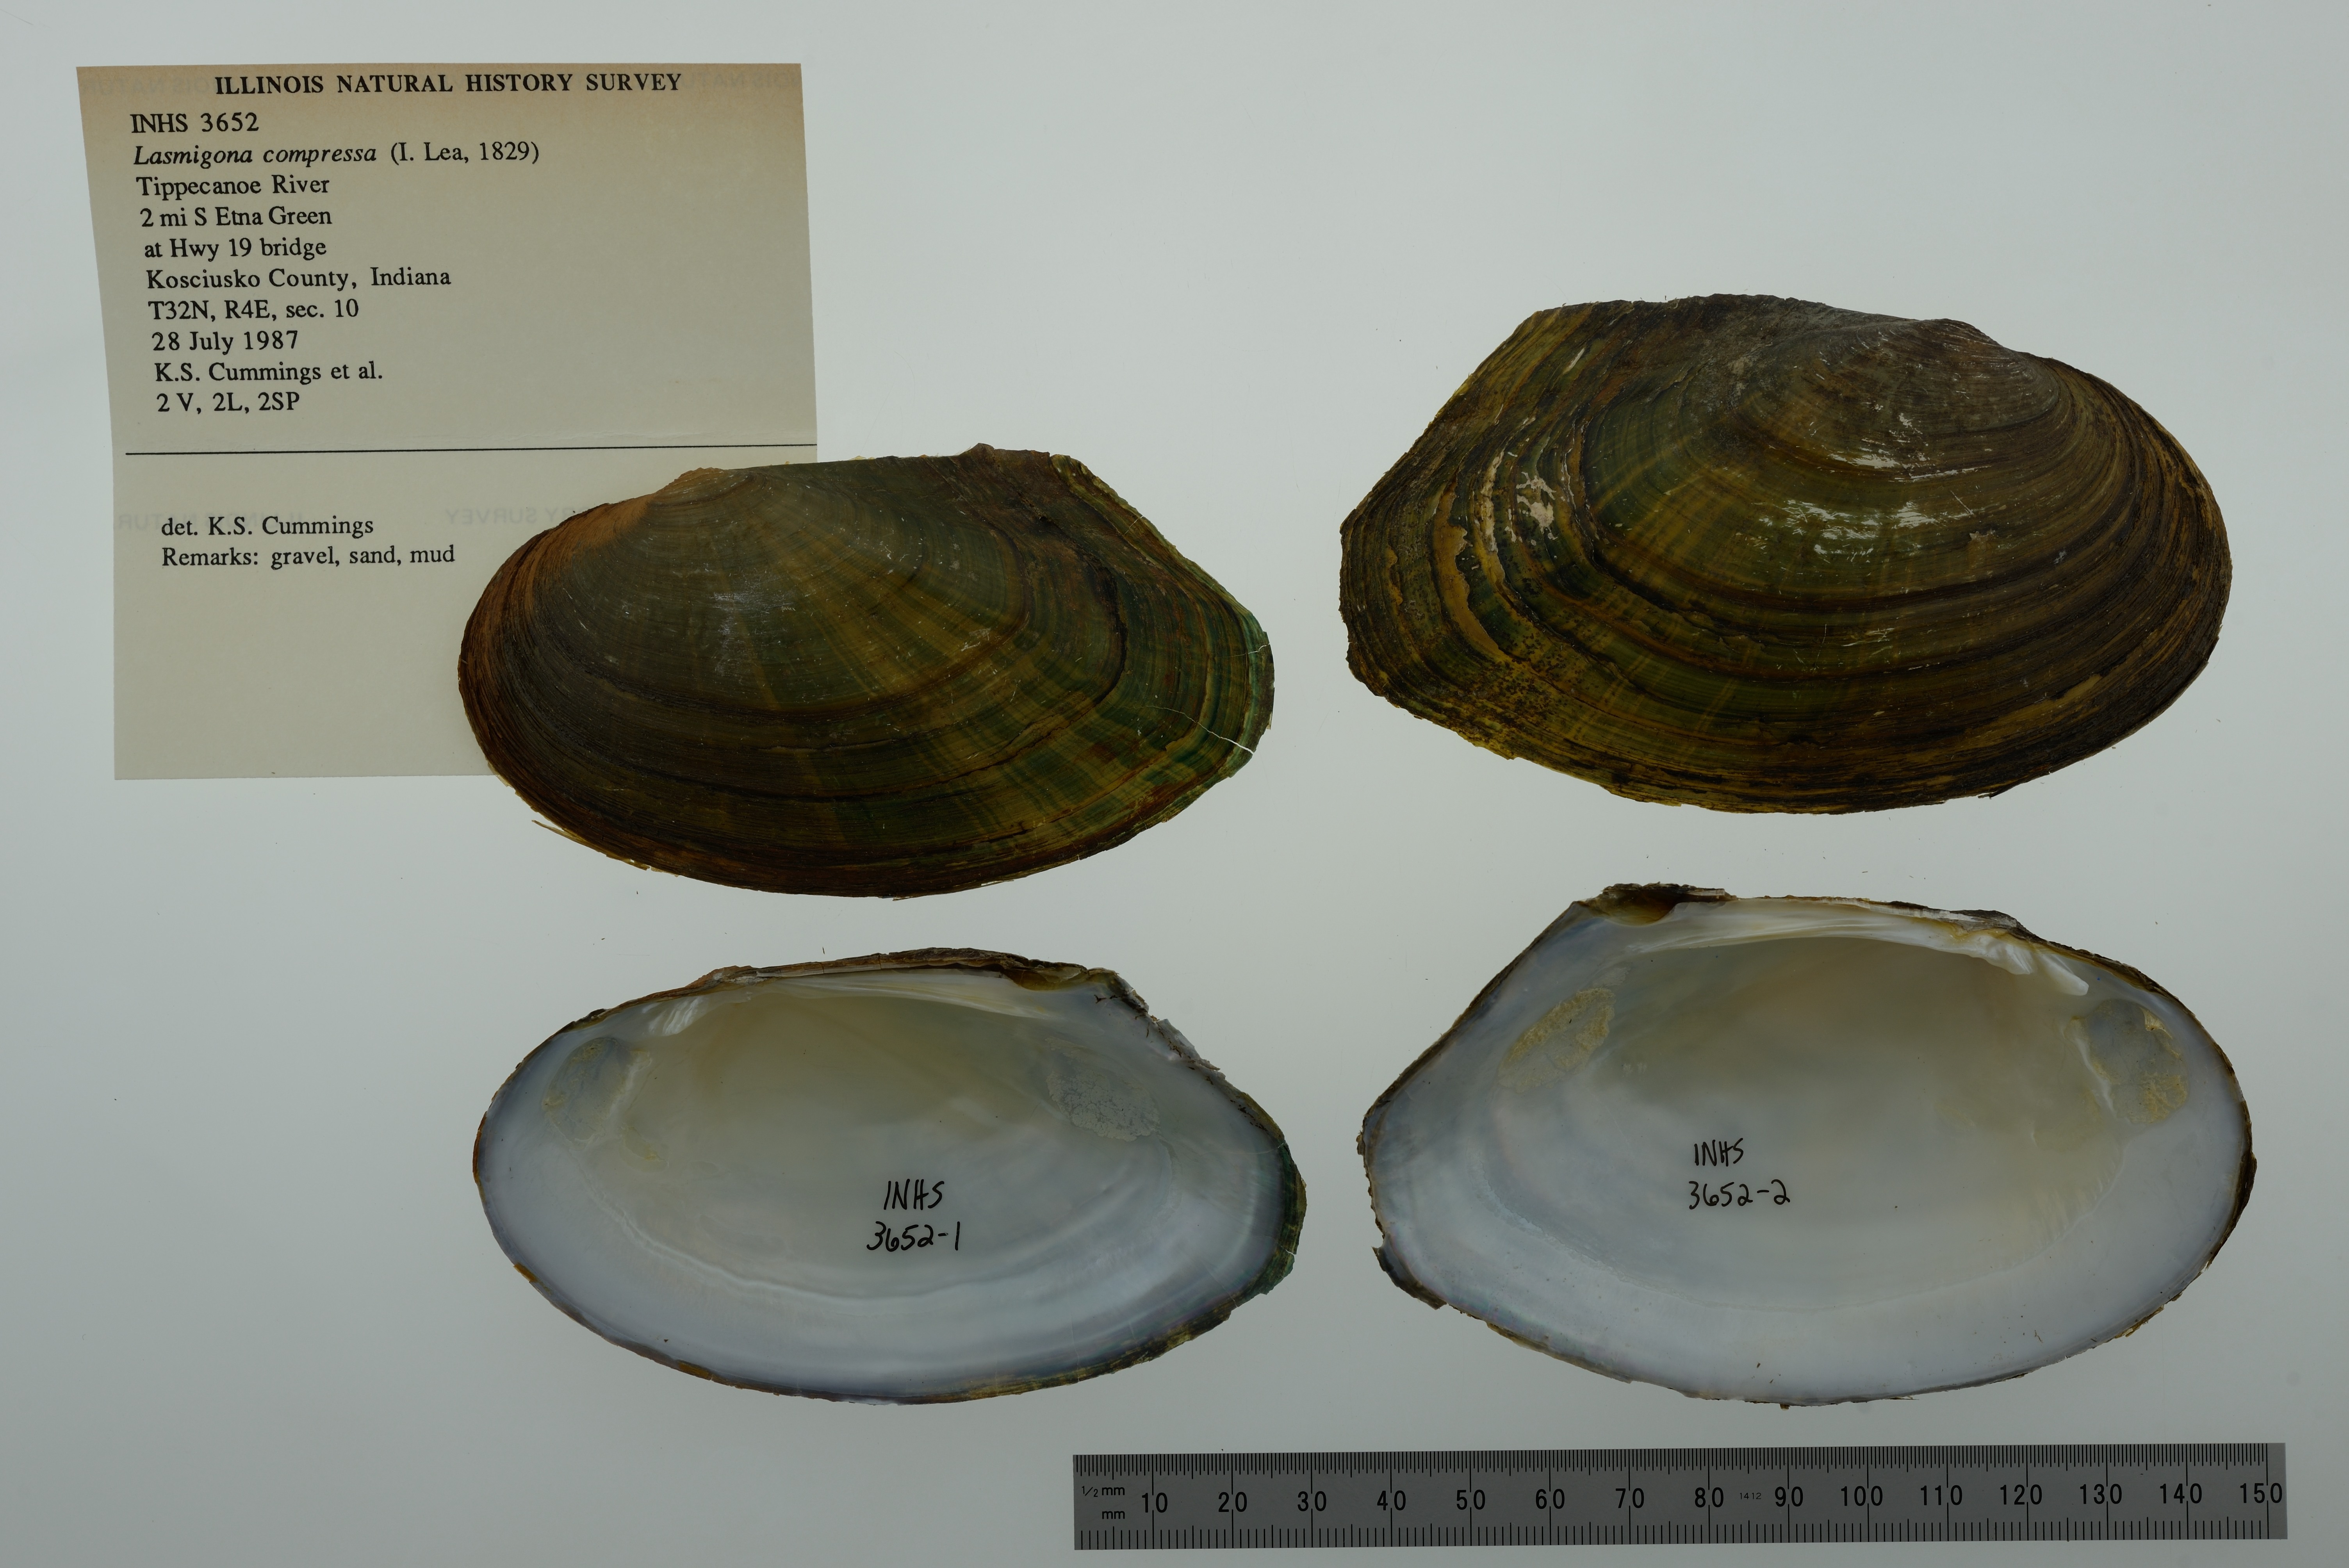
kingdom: Animalia
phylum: Mollusca
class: Bivalvia
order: Unionida
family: Unionidae
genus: Lasmigona
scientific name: Lasmigona compressa
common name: Creek heelsplitter
